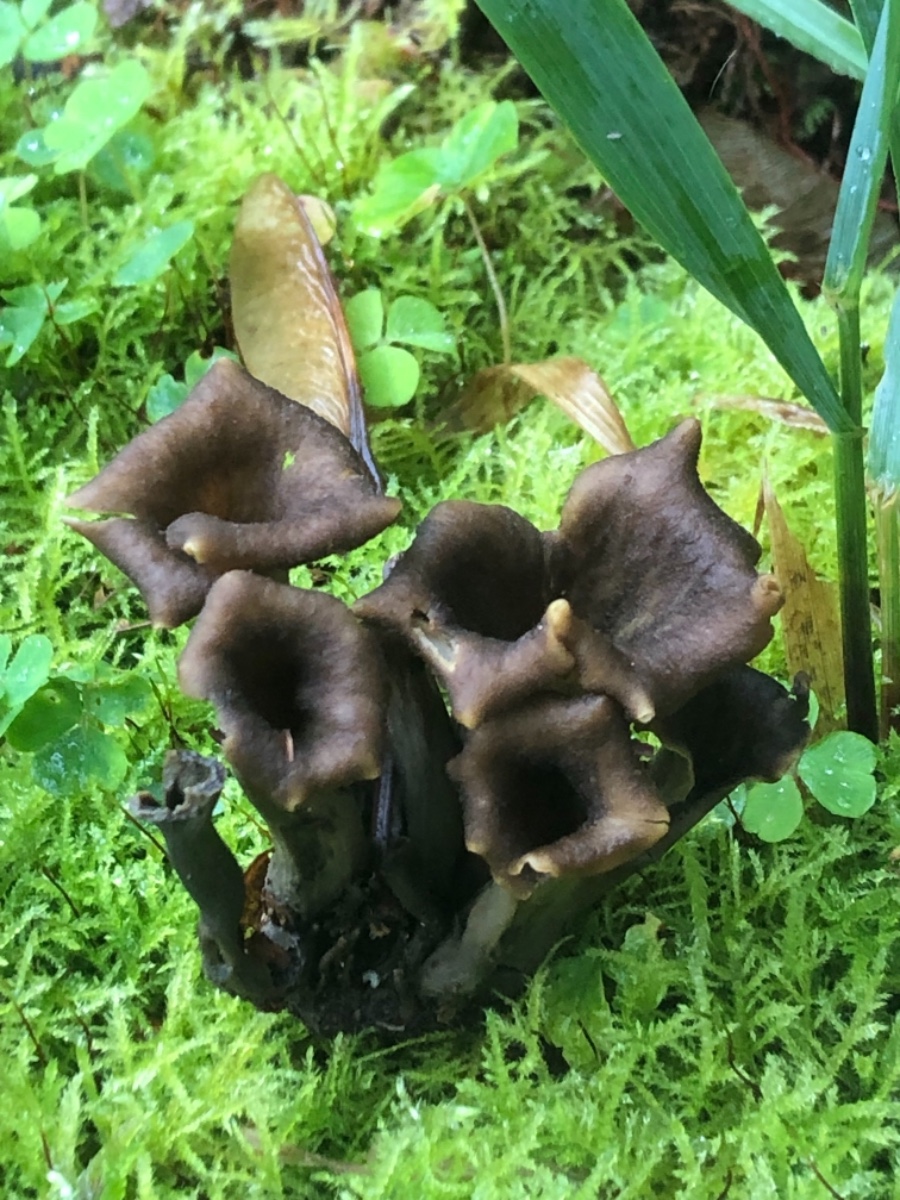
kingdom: Fungi
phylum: Basidiomycota
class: Agaricomycetes
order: Cantharellales
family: Hydnaceae
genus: Craterellus
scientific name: Craterellus cornucopioides
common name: trompetsvamp
